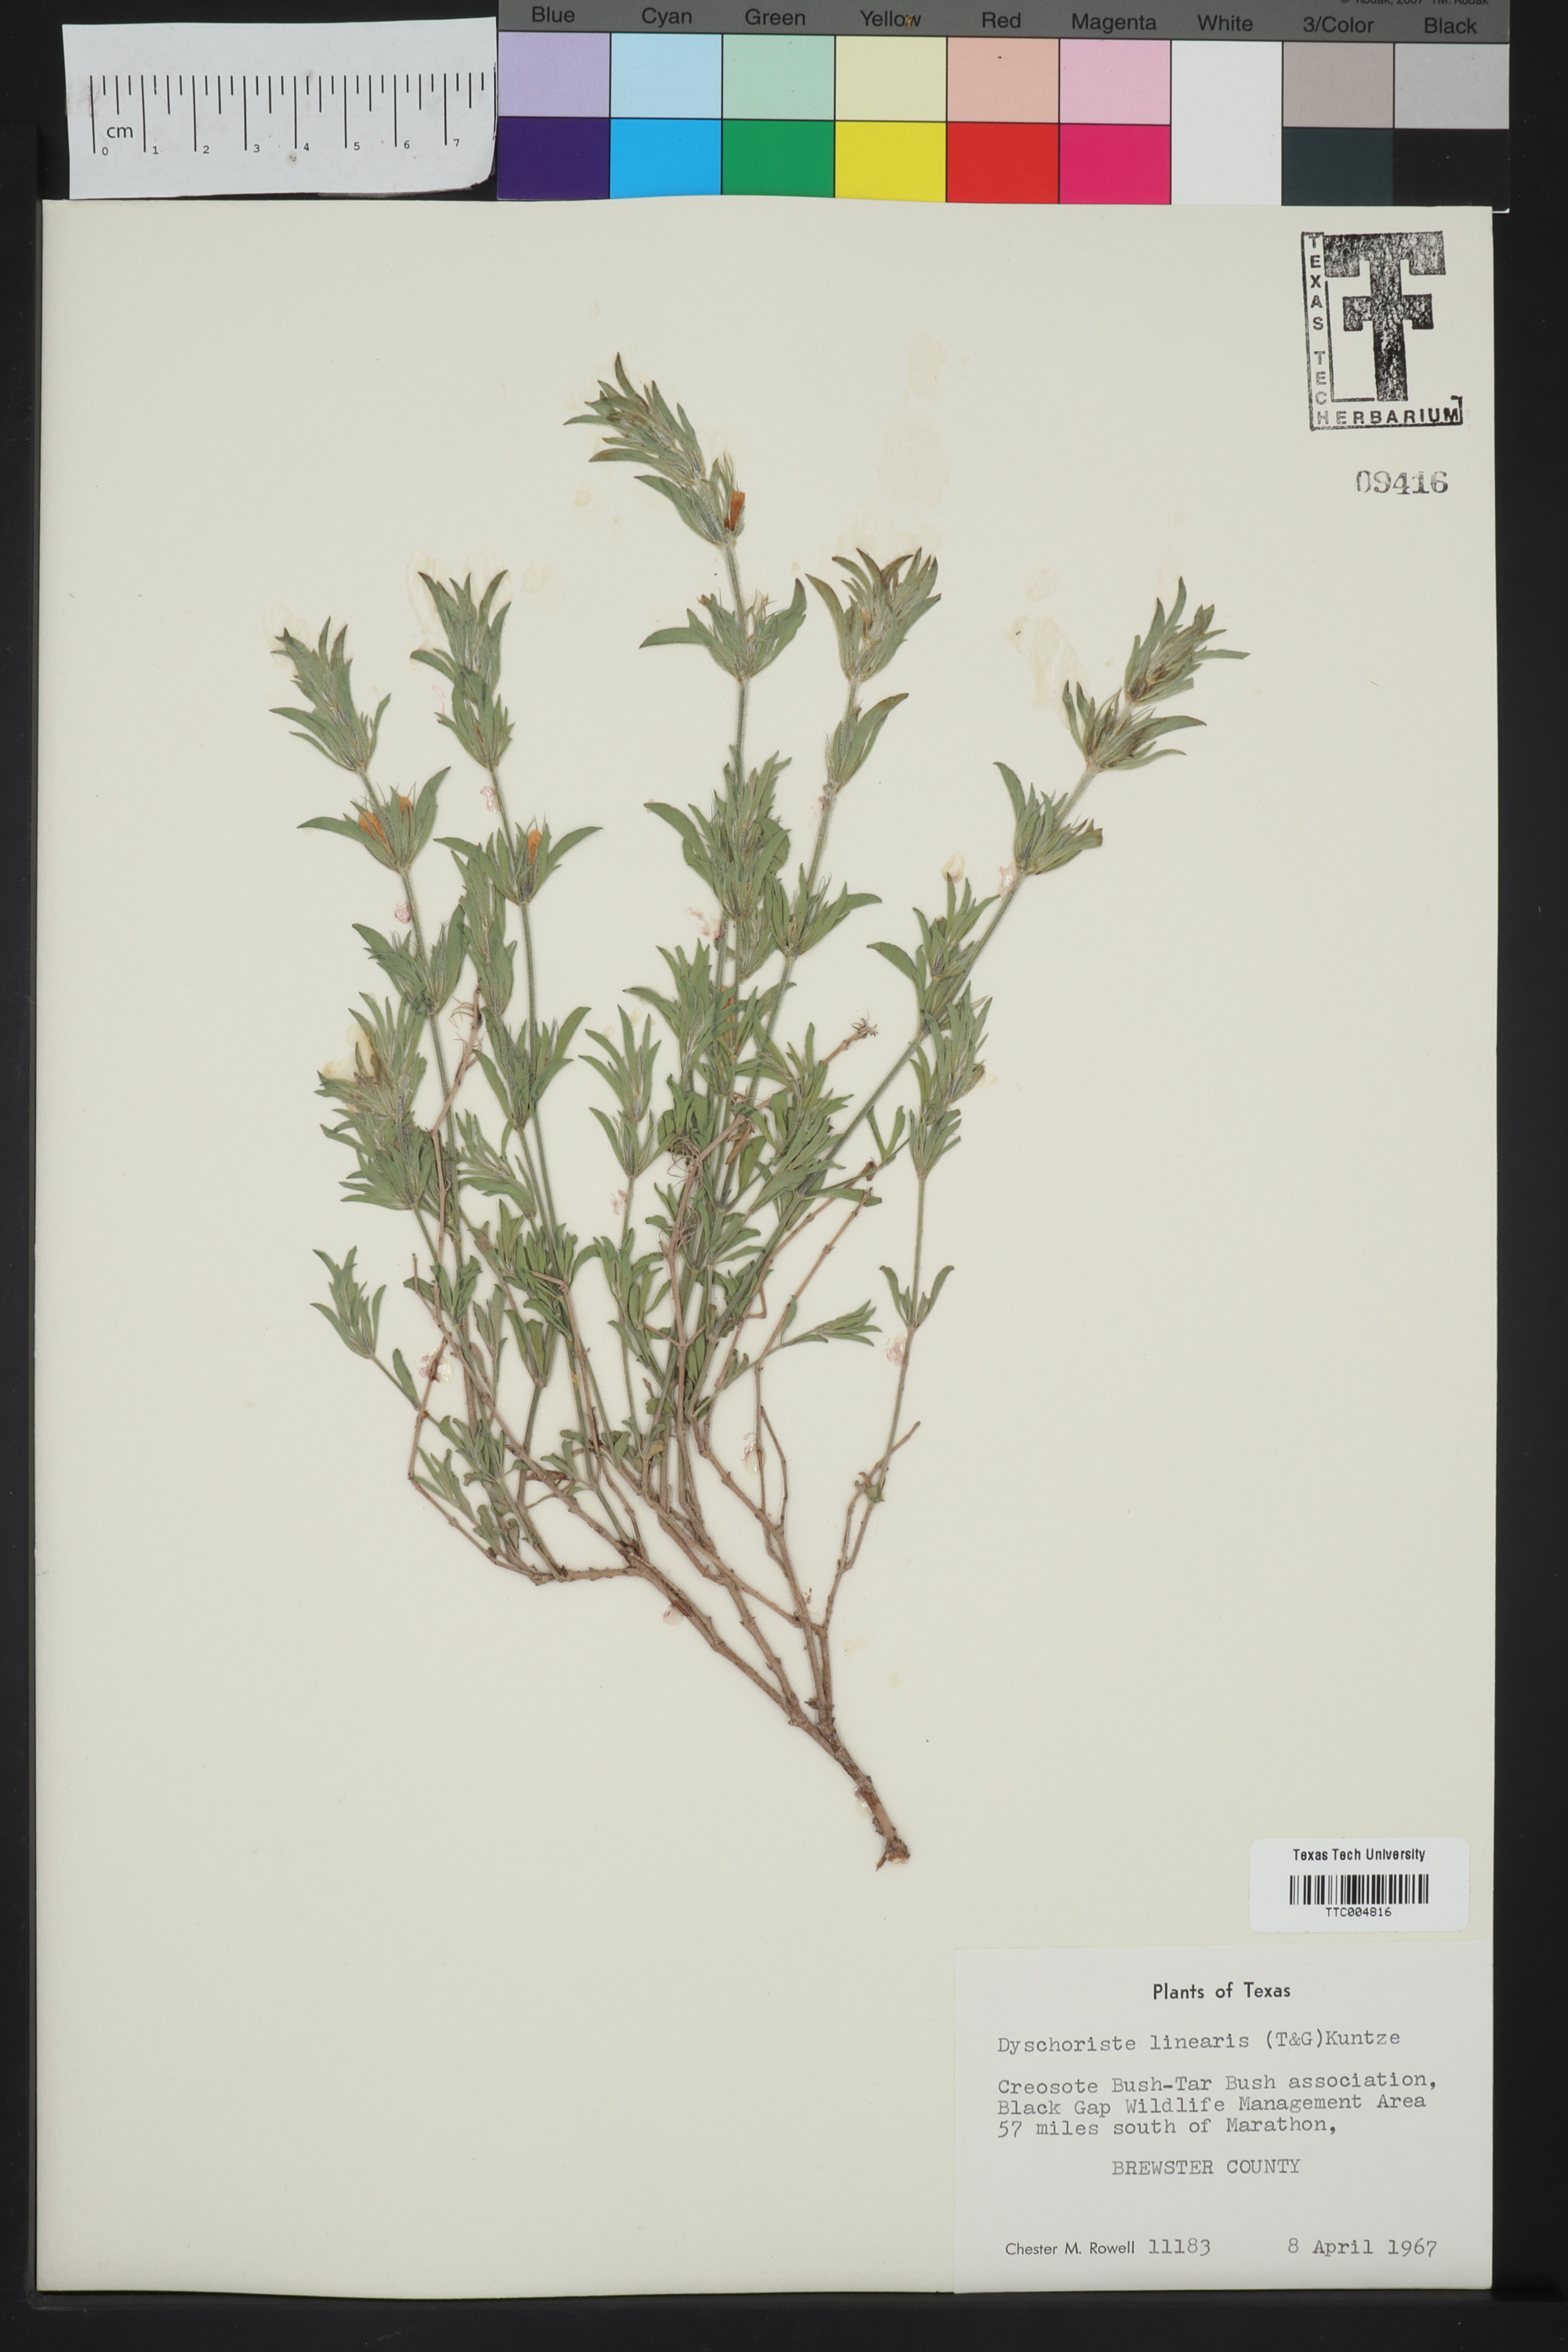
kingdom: Plantae
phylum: Tracheophyta
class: Magnoliopsida
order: Lamiales
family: Acanthaceae
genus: Dyschoriste
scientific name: Dyschoriste linearis
